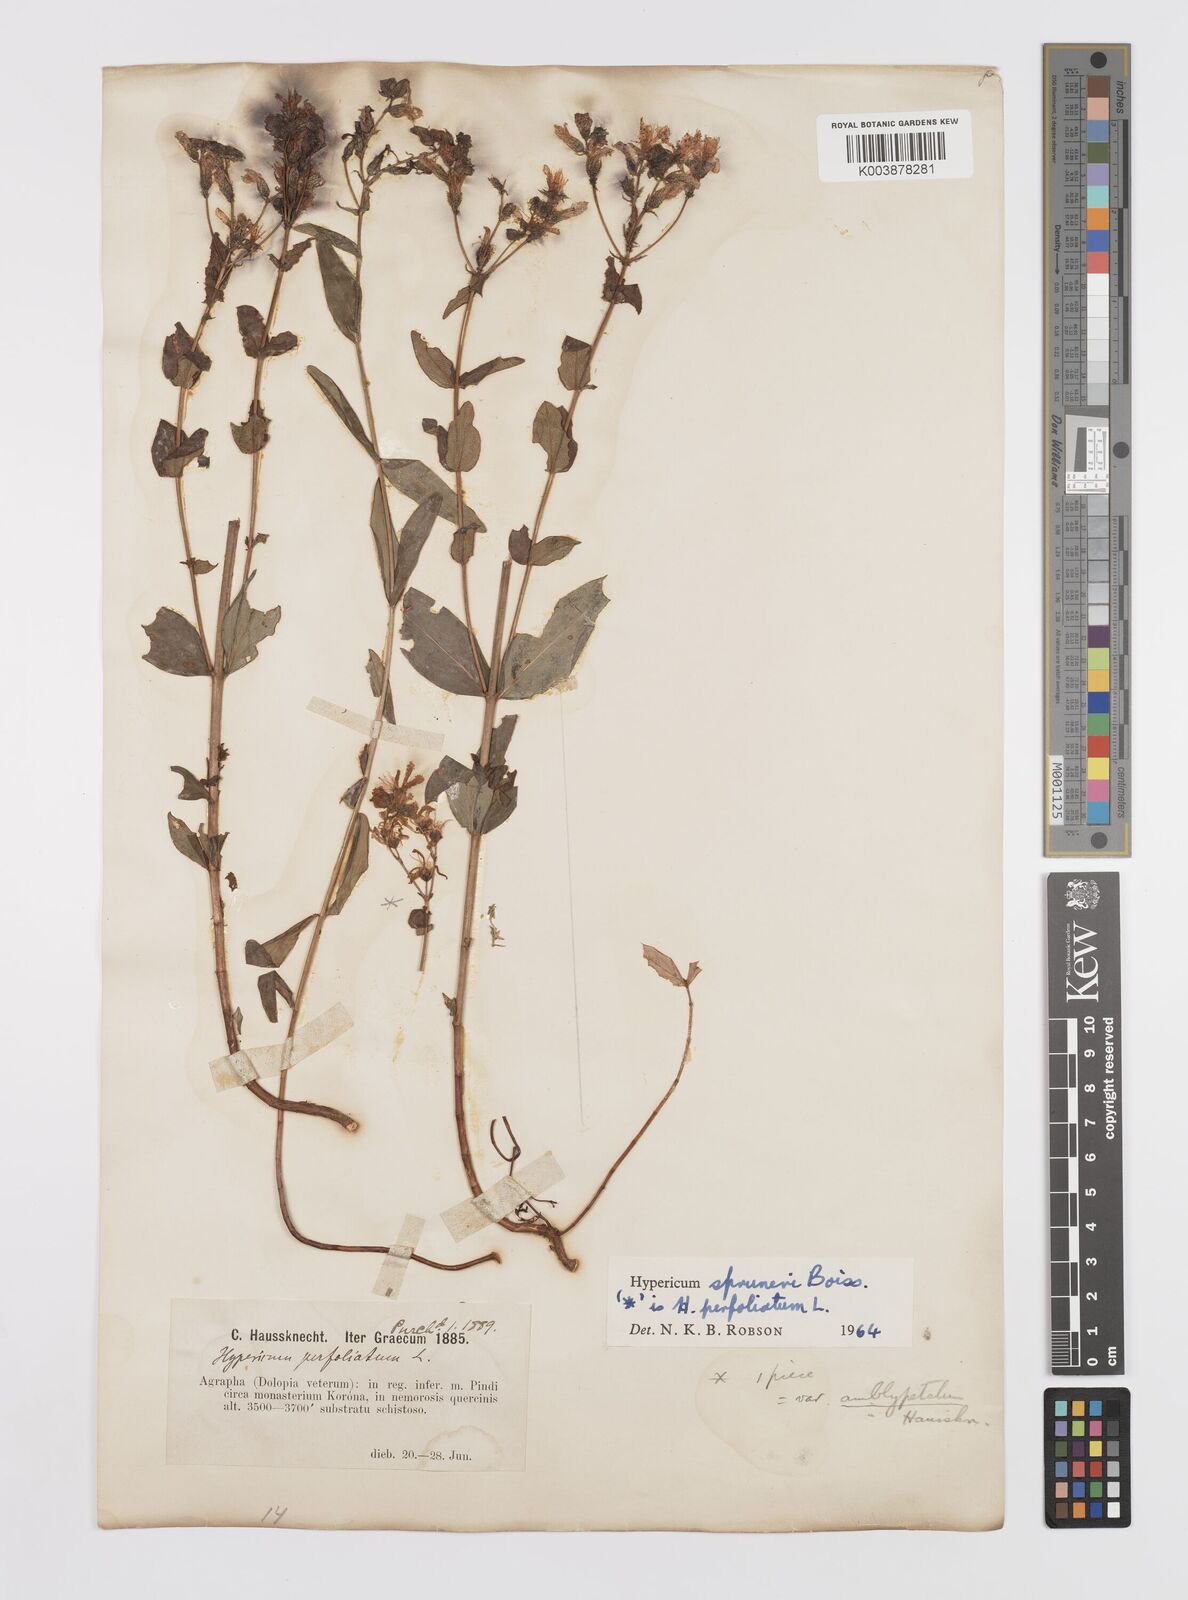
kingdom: Plantae
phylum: Tracheophyta
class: Magnoliopsida
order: Malpighiales
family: Hypericaceae
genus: Hypericum
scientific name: Hypericum spruneri
